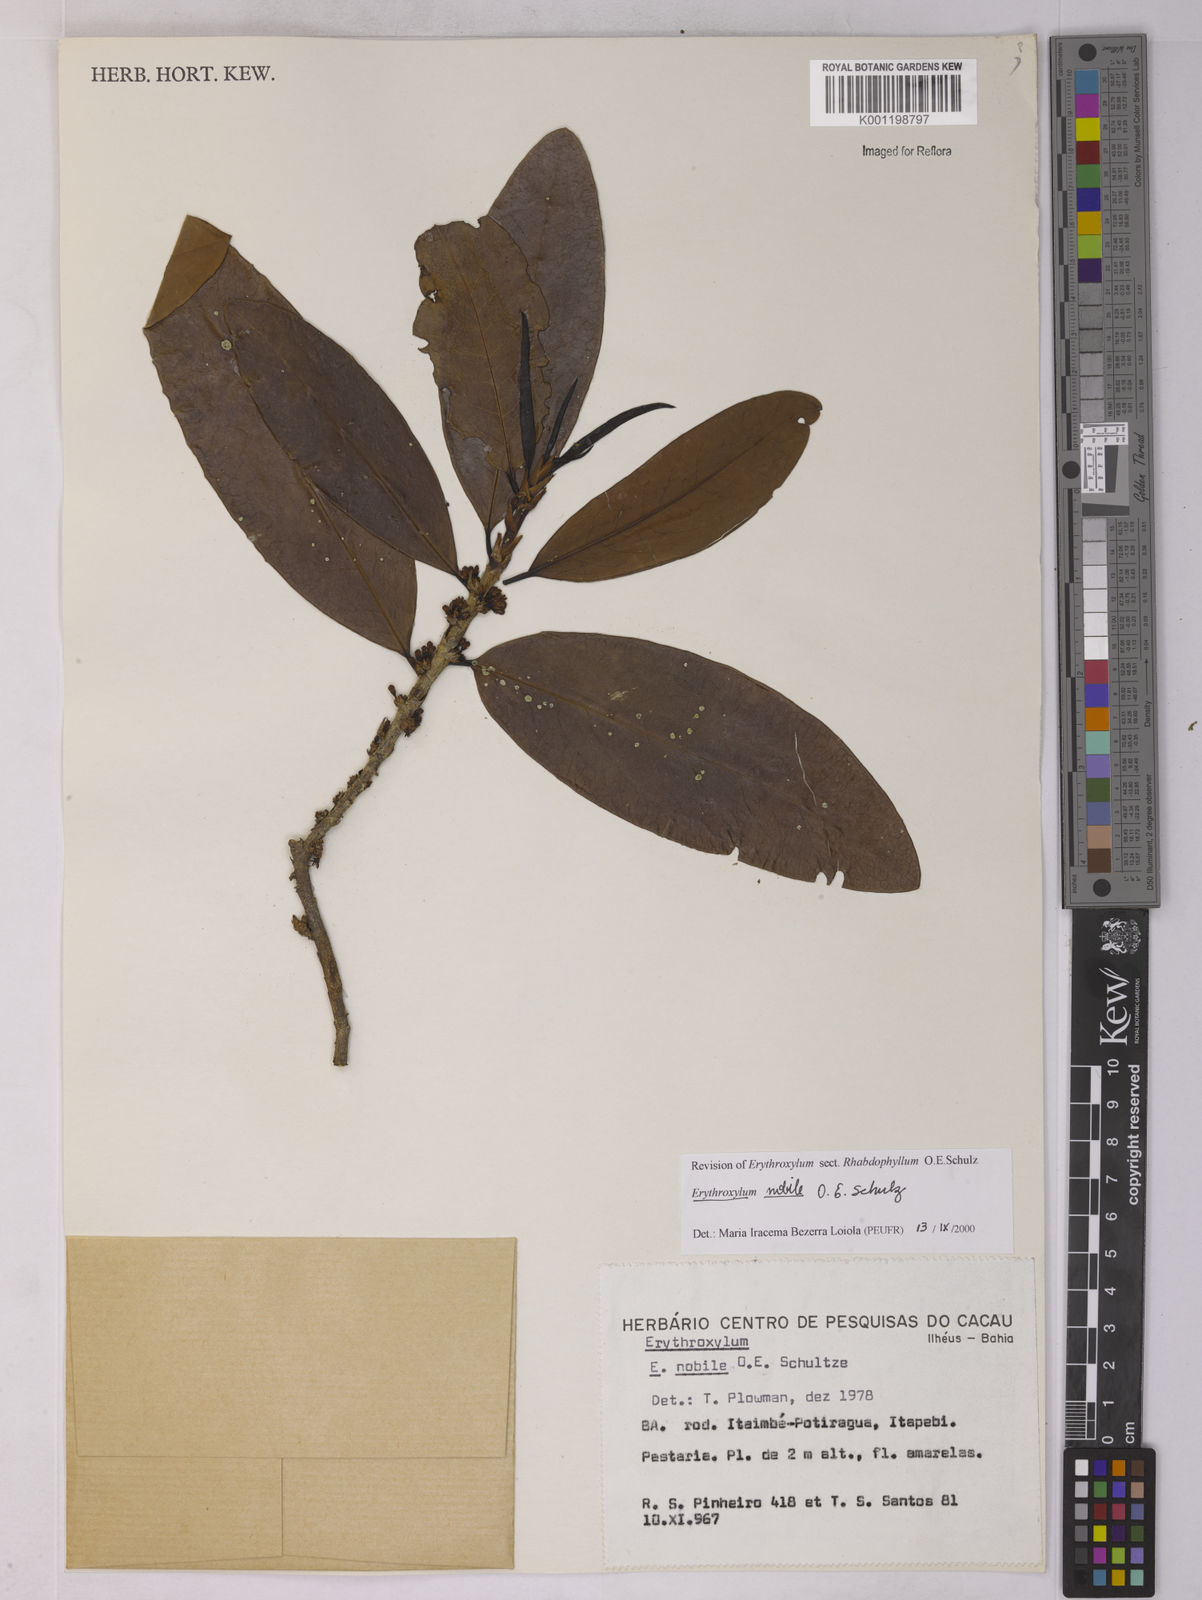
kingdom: Plantae
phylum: Tracheophyta
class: Magnoliopsida
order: Malpighiales
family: Erythroxylaceae
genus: Erythroxylum
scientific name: Erythroxylum nobile
